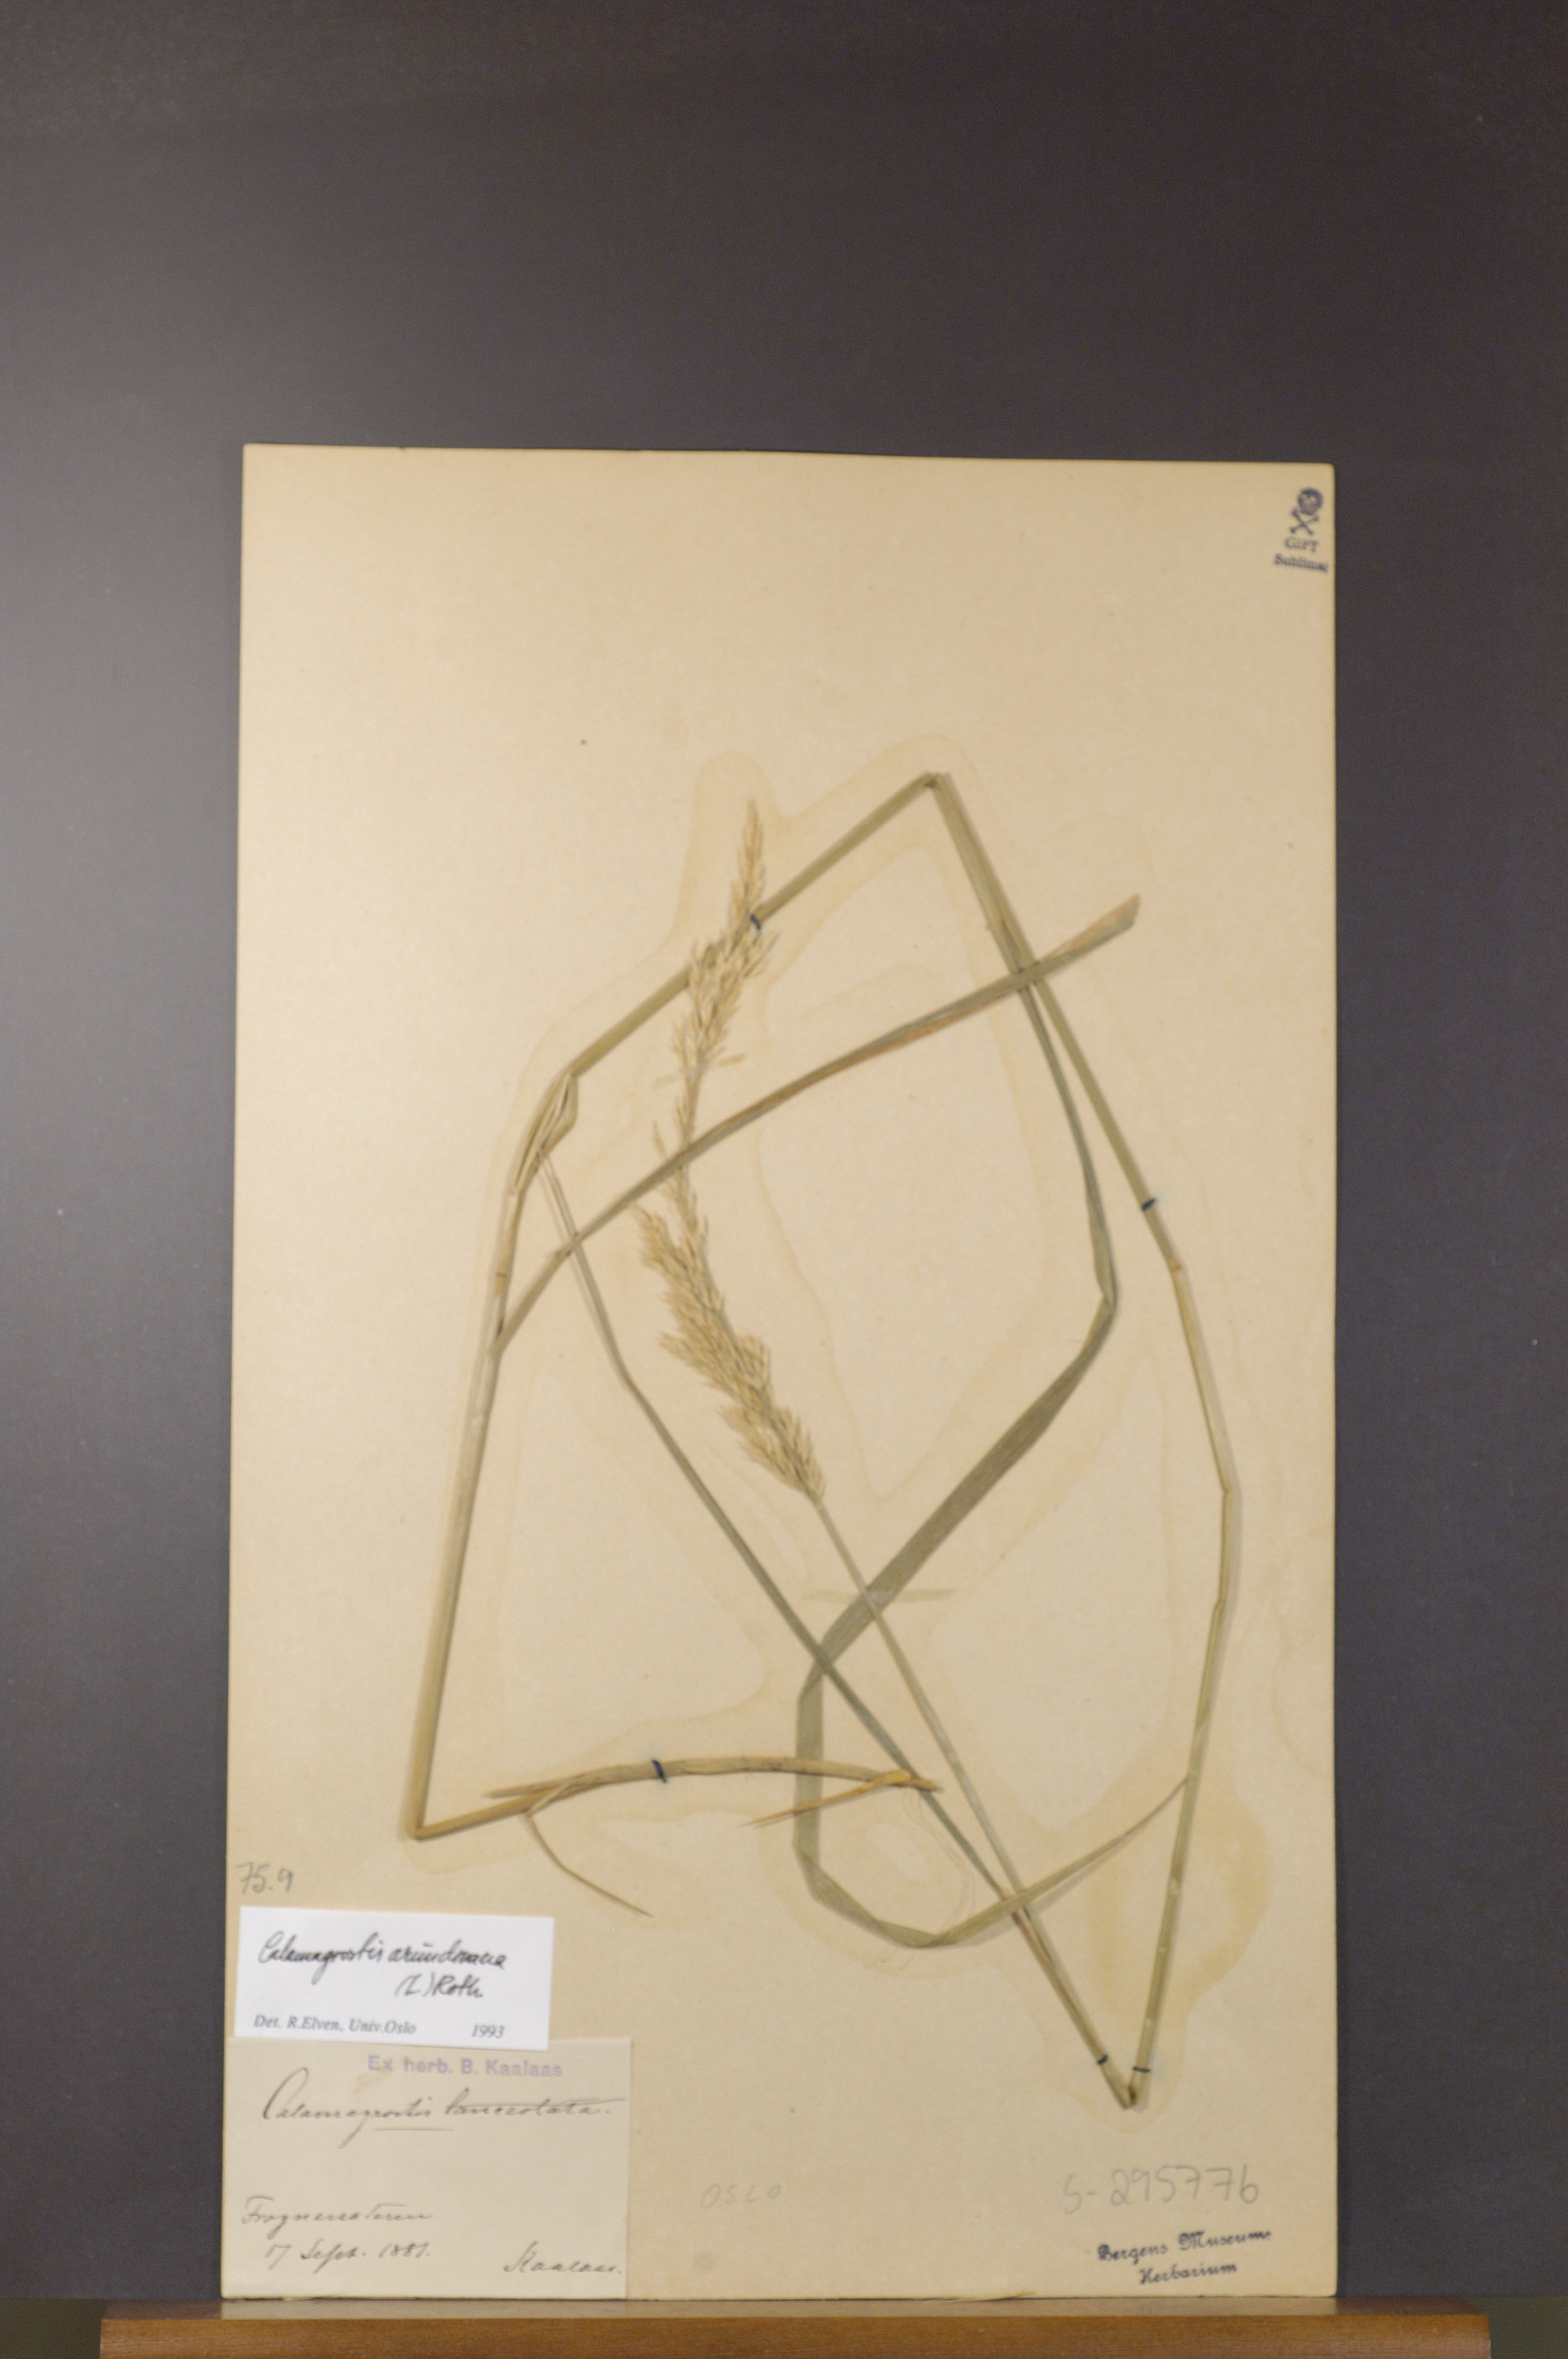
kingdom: Plantae
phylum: Tracheophyta
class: Liliopsida
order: Poales
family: Poaceae
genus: Calamagrostis
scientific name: Calamagrostis arundinacea
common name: Metskastik
